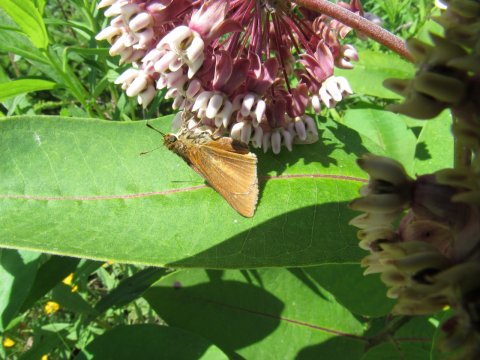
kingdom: Animalia
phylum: Arthropoda
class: Insecta
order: Lepidoptera
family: Hesperiidae
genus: Euphyes
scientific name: Euphyes dion
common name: Dion Skipper
